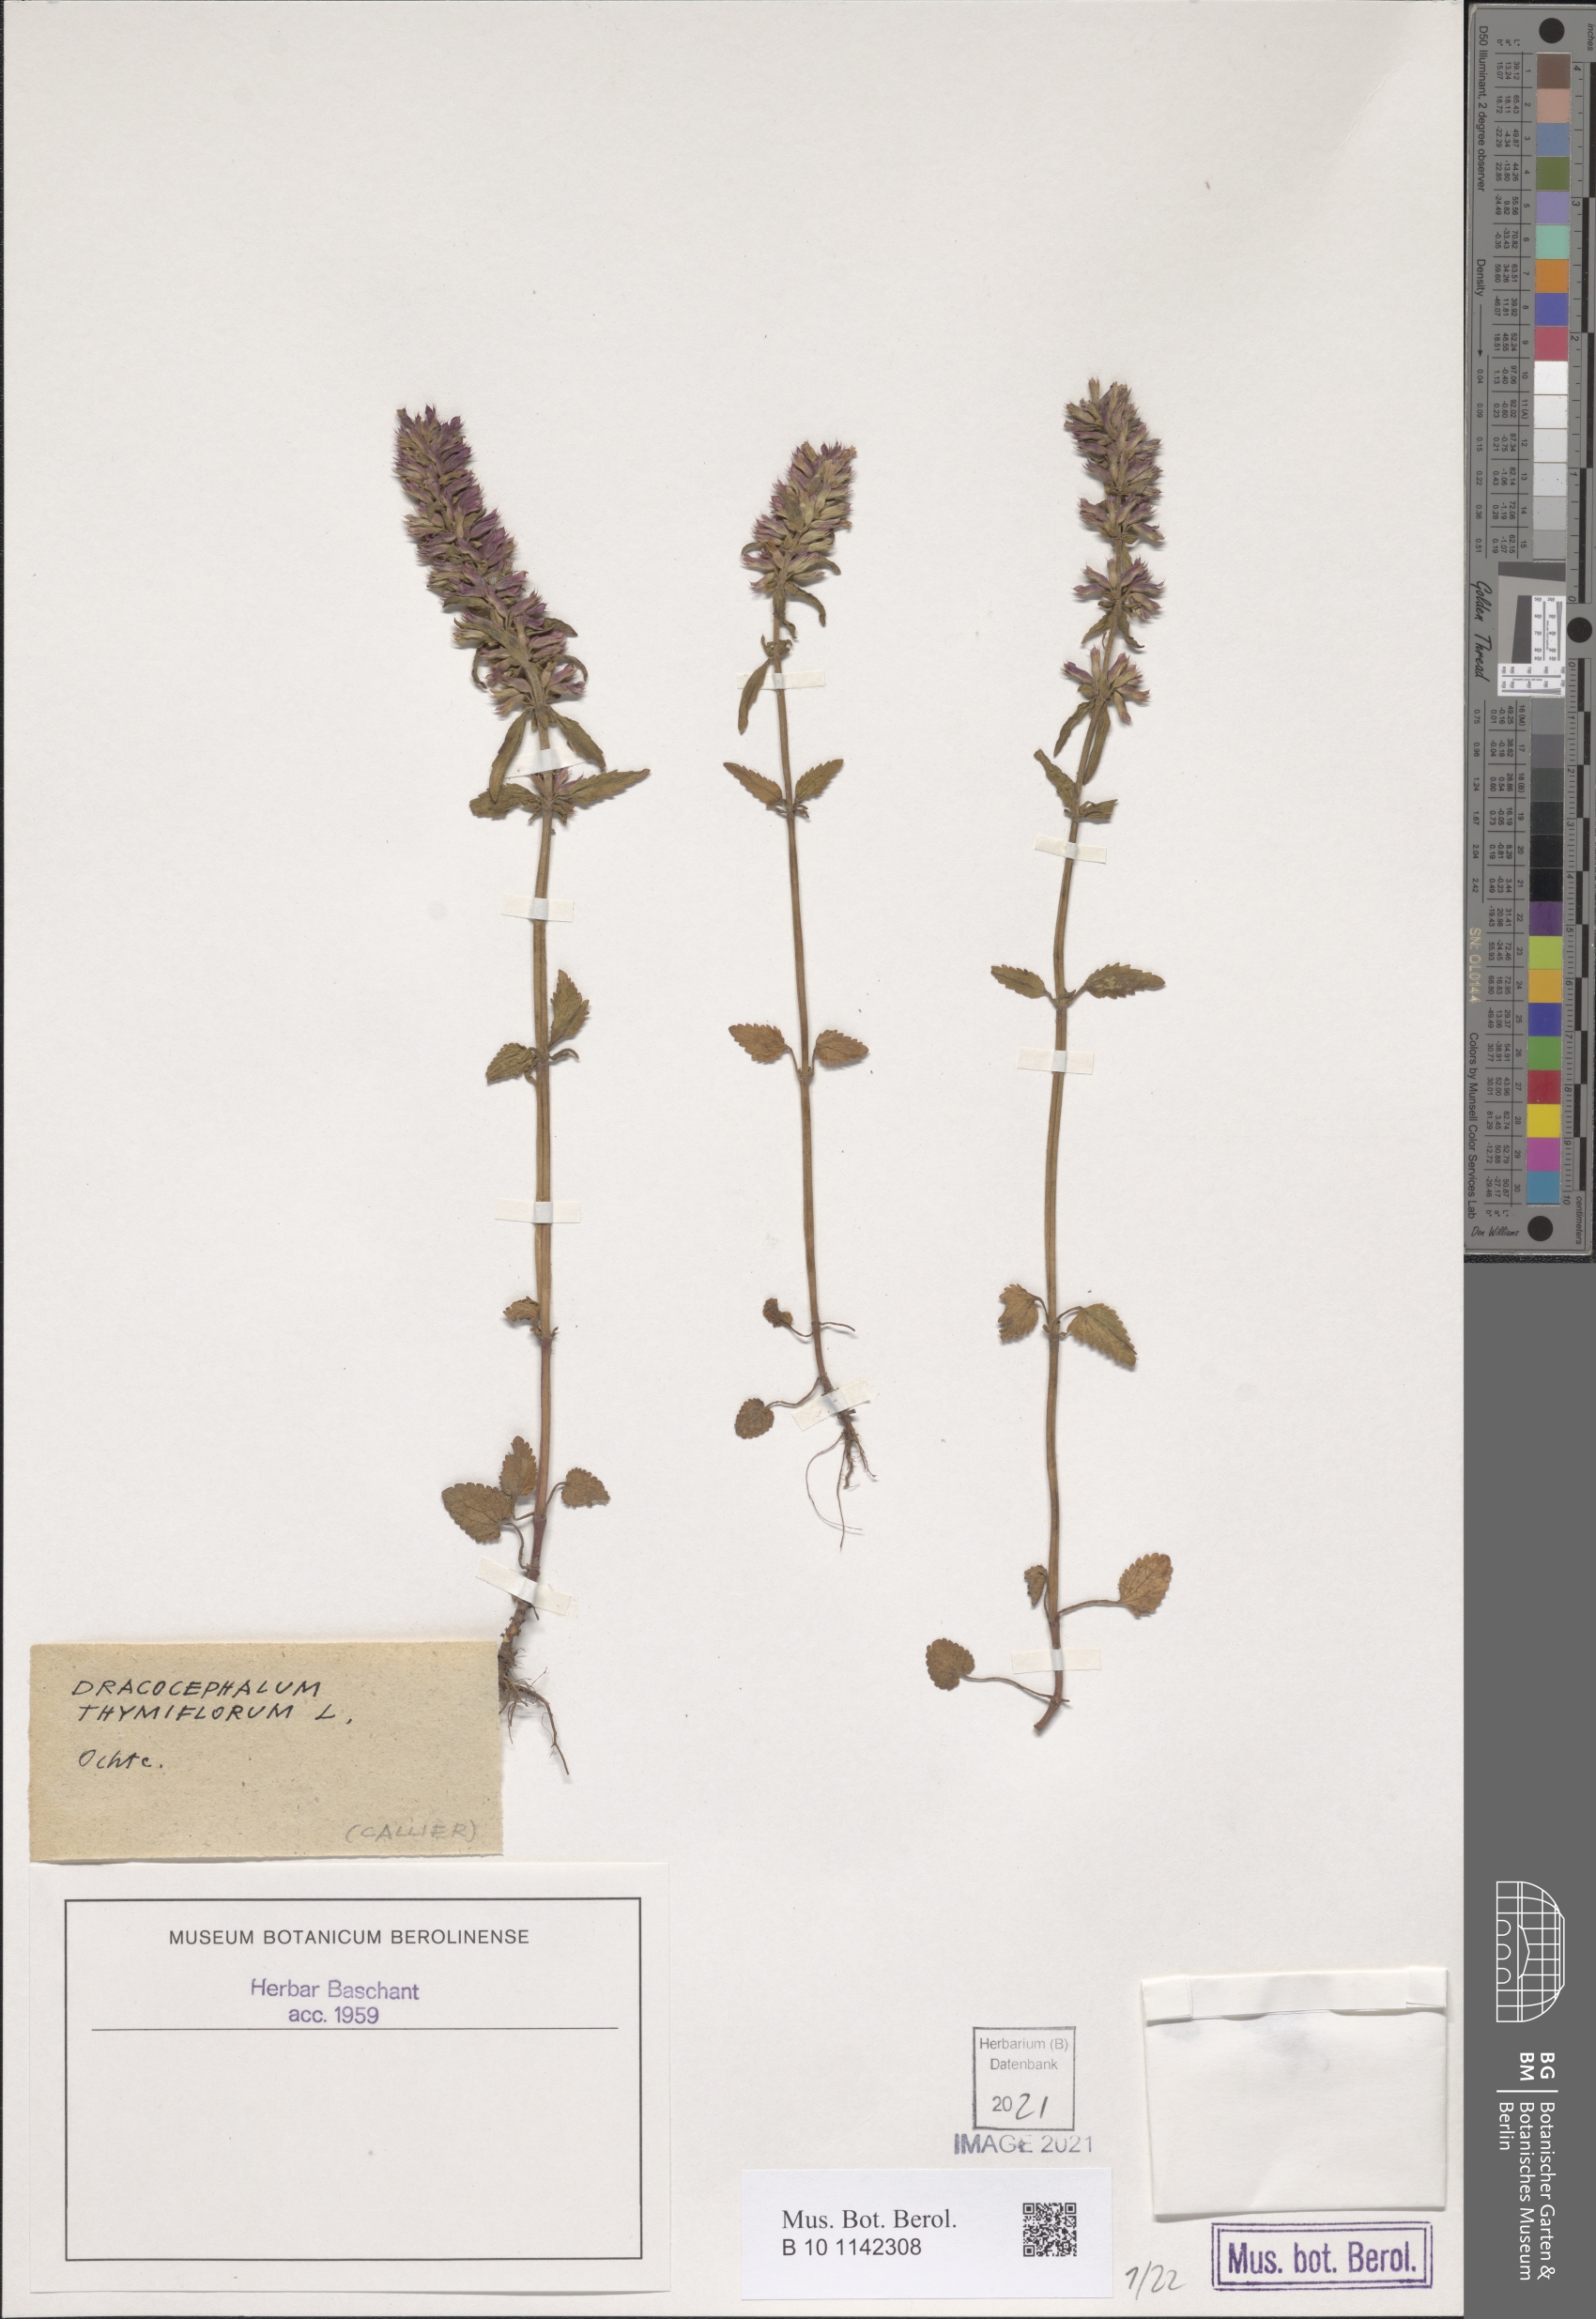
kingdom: Plantae
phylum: Tracheophyta
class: Magnoliopsida
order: Lamiales
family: Lamiaceae
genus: Dracocephalum
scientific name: Dracocephalum thymiflorum
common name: Thymeleaf dragonhead
